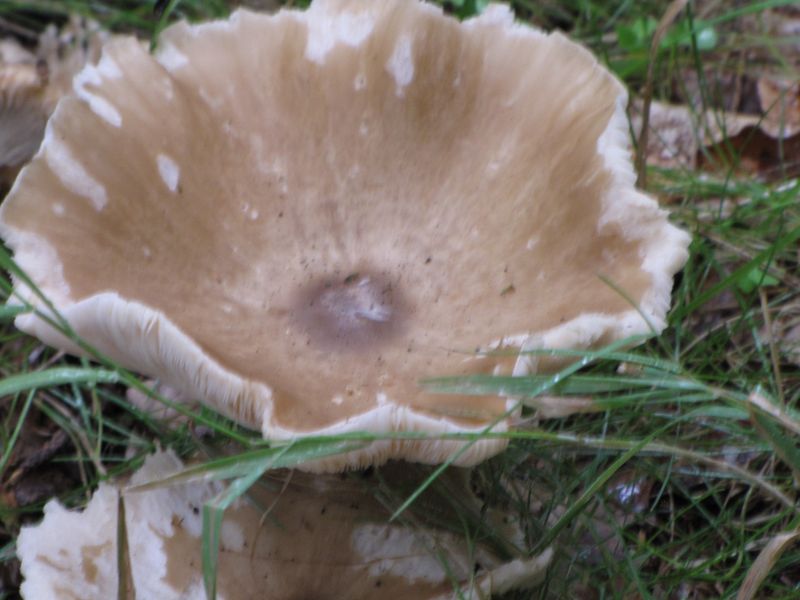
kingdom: Fungi
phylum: Basidiomycota
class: Agaricomycetes
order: Agaricales
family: Tricholomataceae
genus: Melanoleuca
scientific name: Melanoleuca grammopodia
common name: stribestokket munkehat
